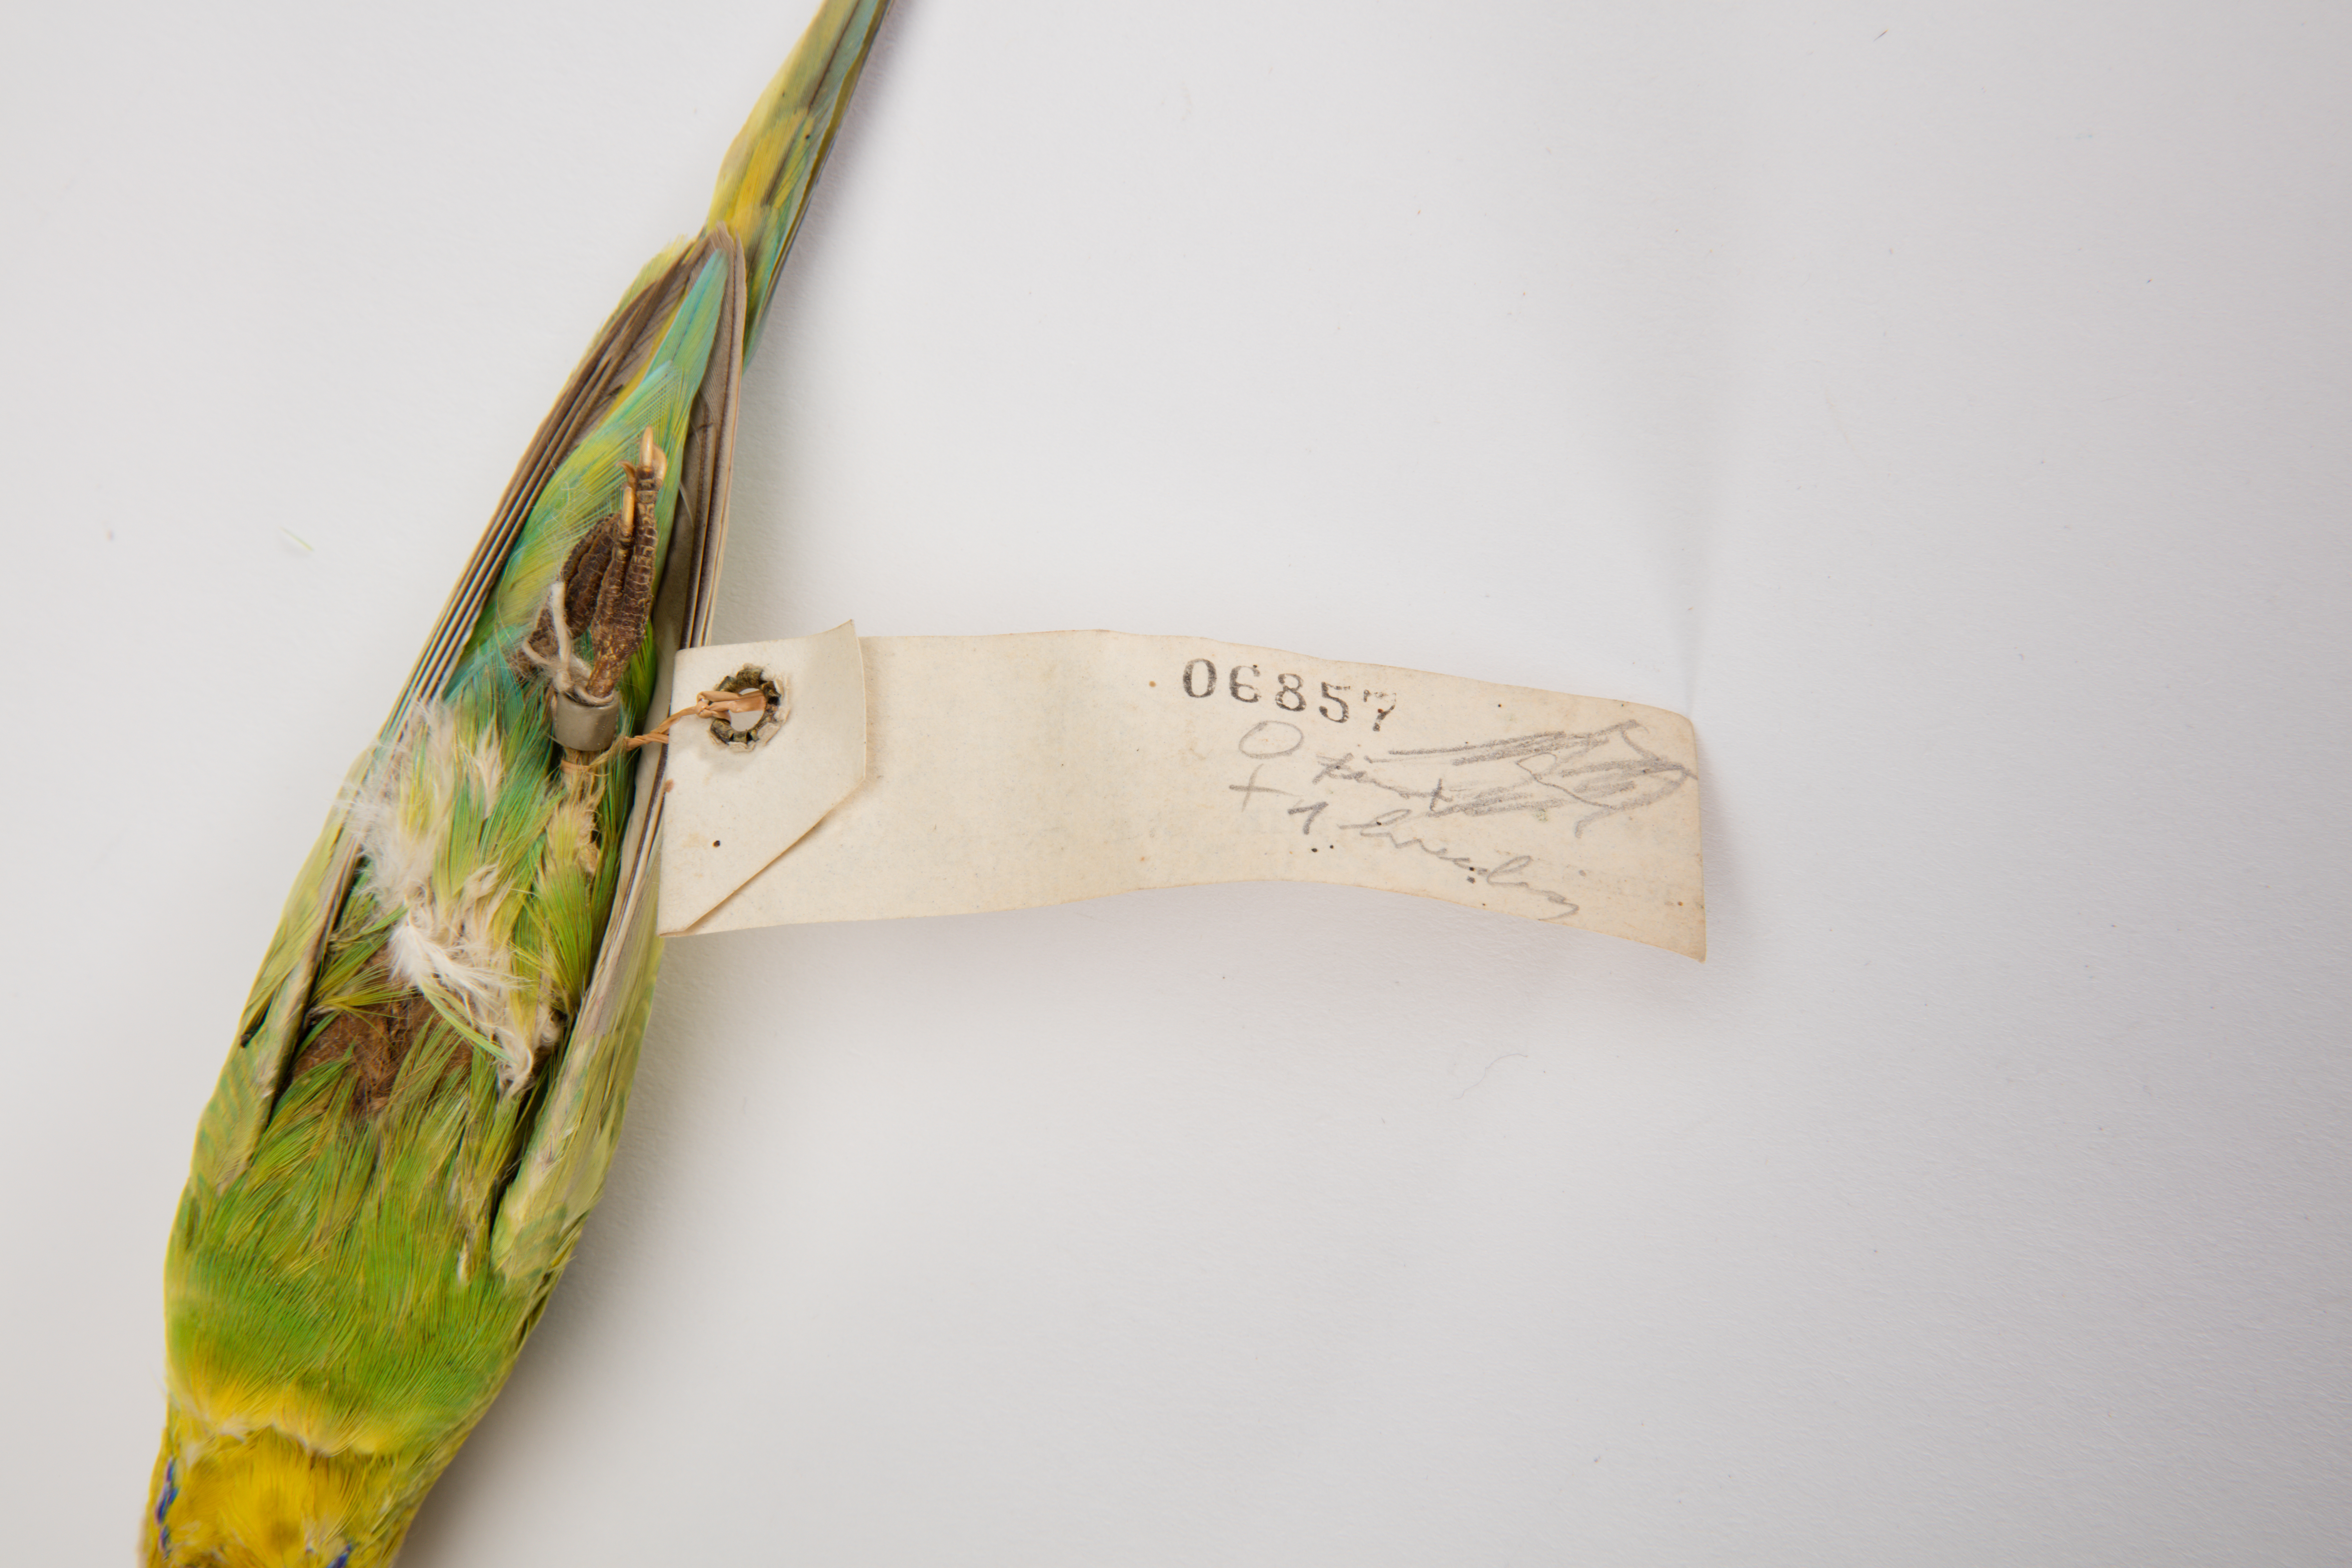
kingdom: Animalia
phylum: Chordata
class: Aves
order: Psittaciformes
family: Psittacidae
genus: Melopsittacus
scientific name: Melopsittacus undulatus
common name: Budgerigar
